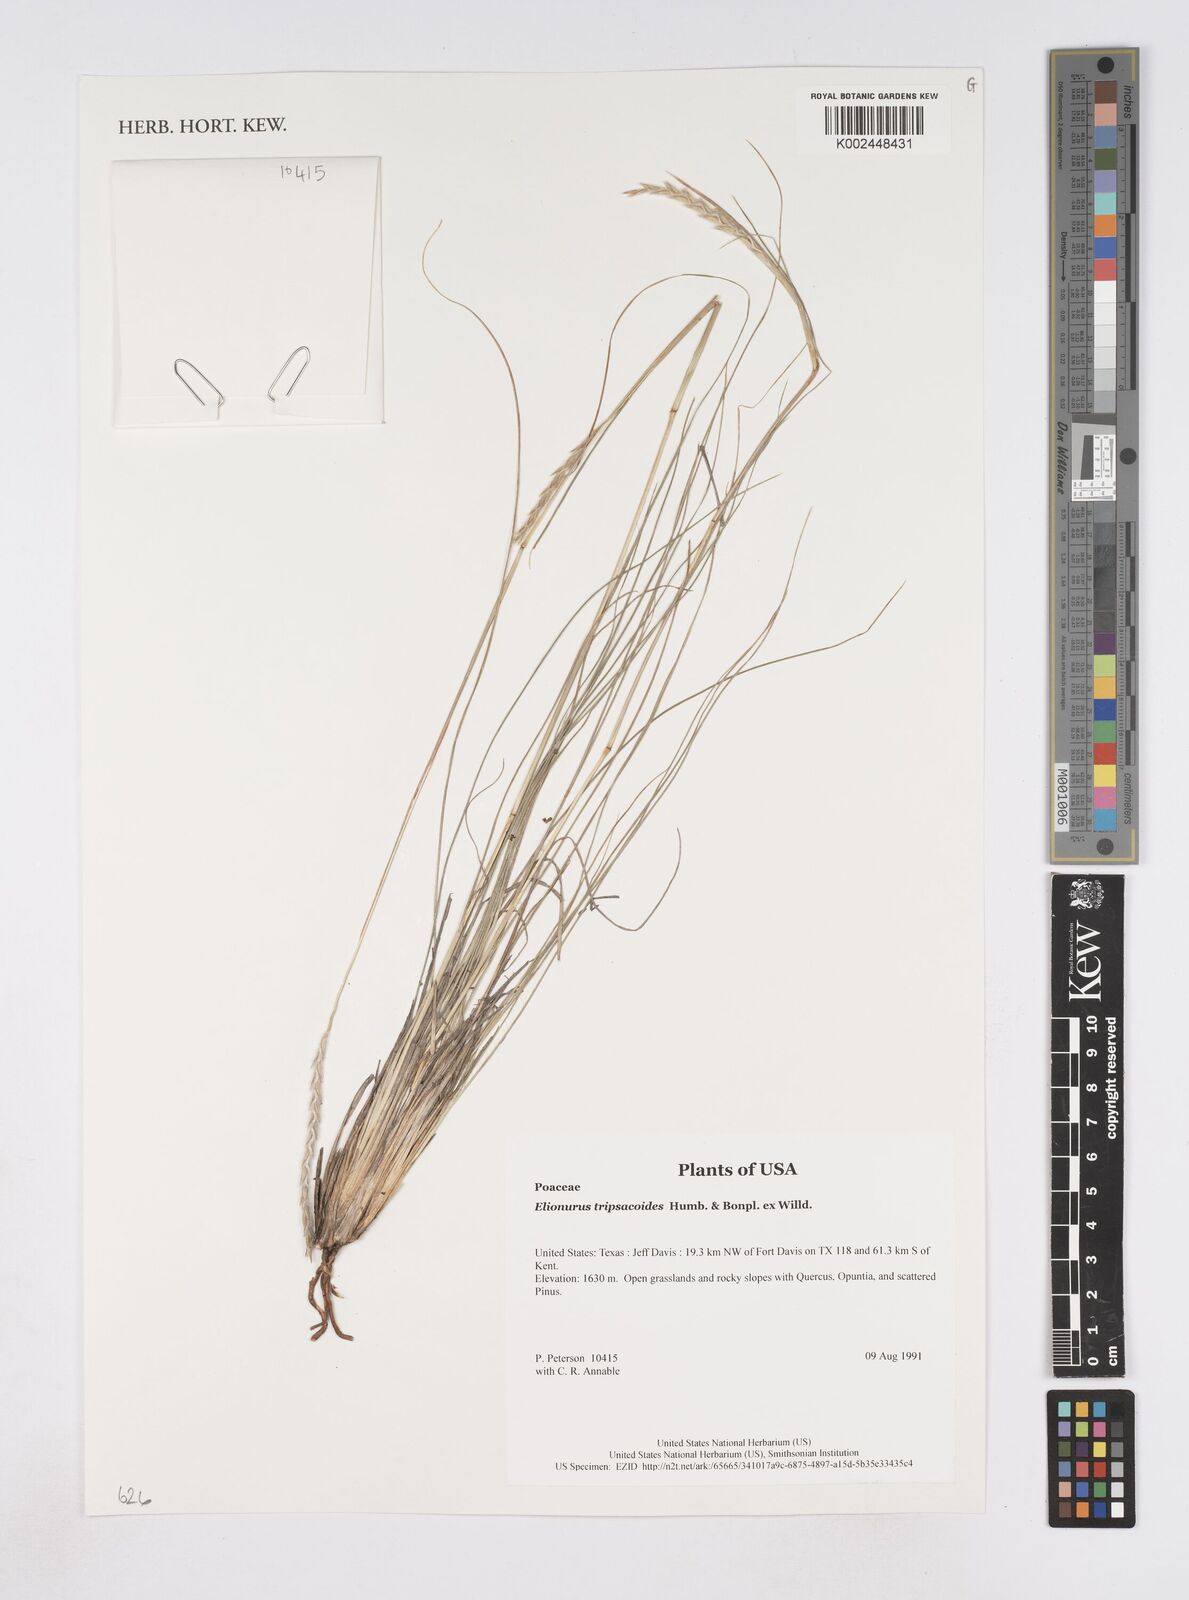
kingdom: Plantae
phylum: Tracheophyta
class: Liliopsida
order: Poales
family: Poaceae
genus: Elionurus
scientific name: Elionurus tripsacoides
